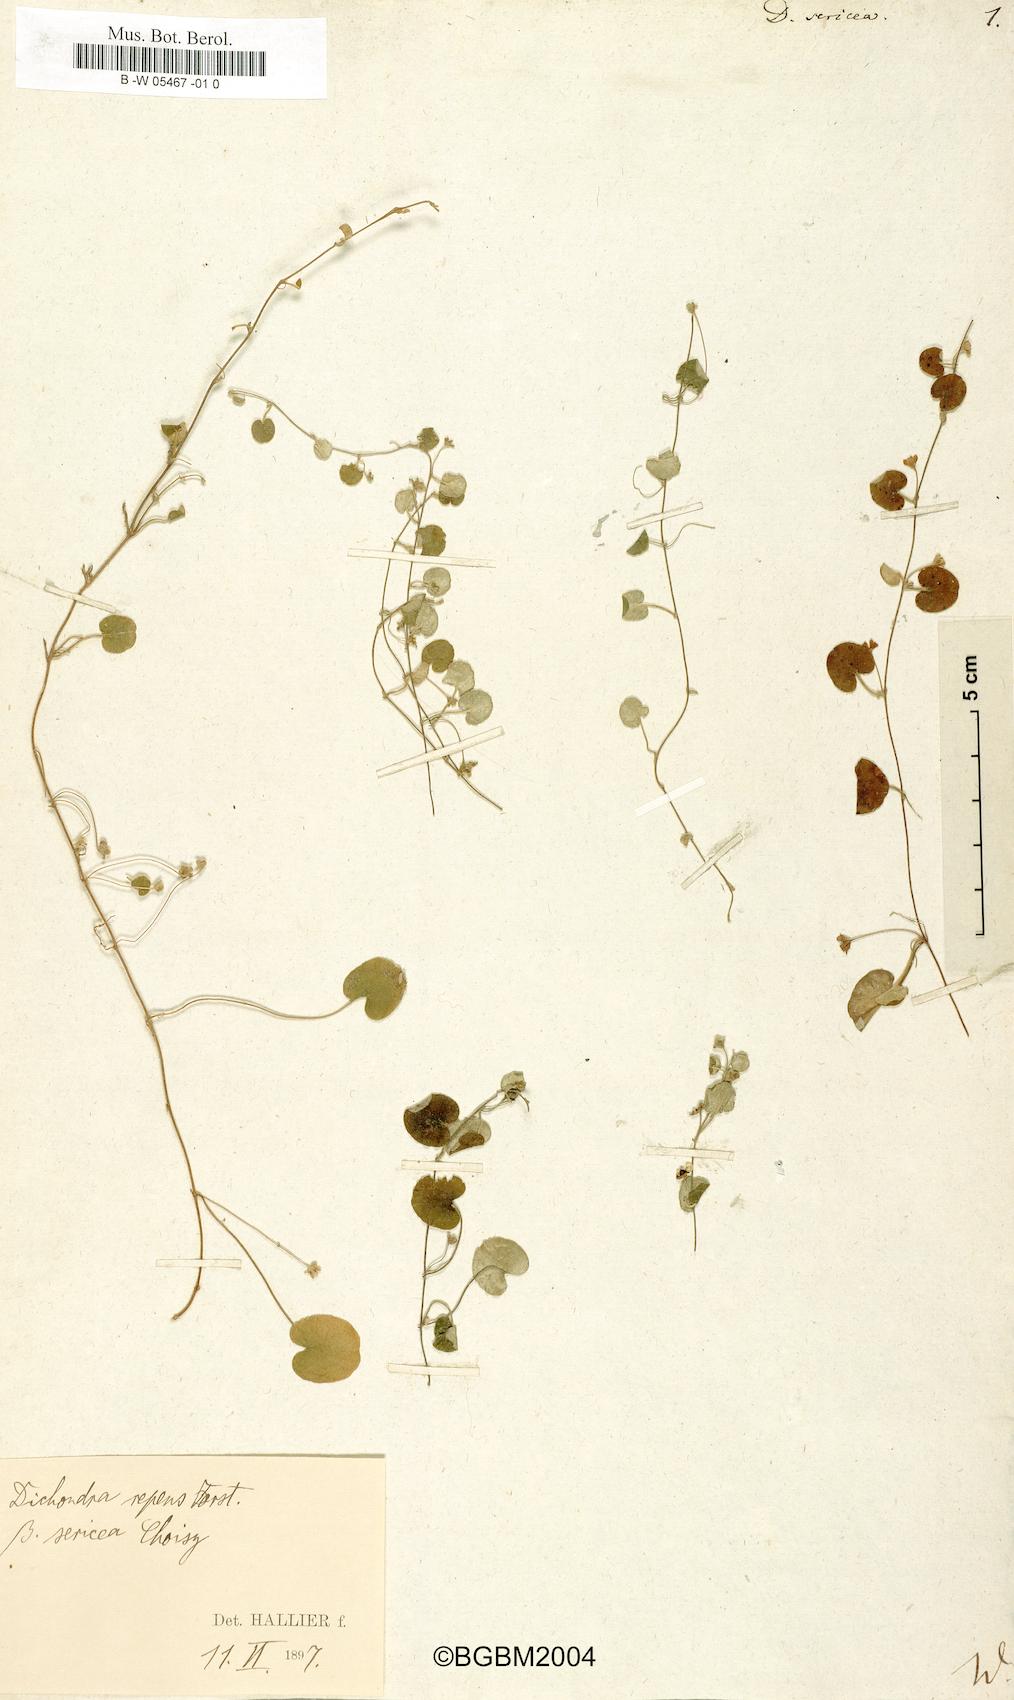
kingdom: Plantae
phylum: Tracheophyta
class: Magnoliopsida
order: Solanales
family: Convolvulaceae
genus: Dichondra
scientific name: Dichondra sericea
